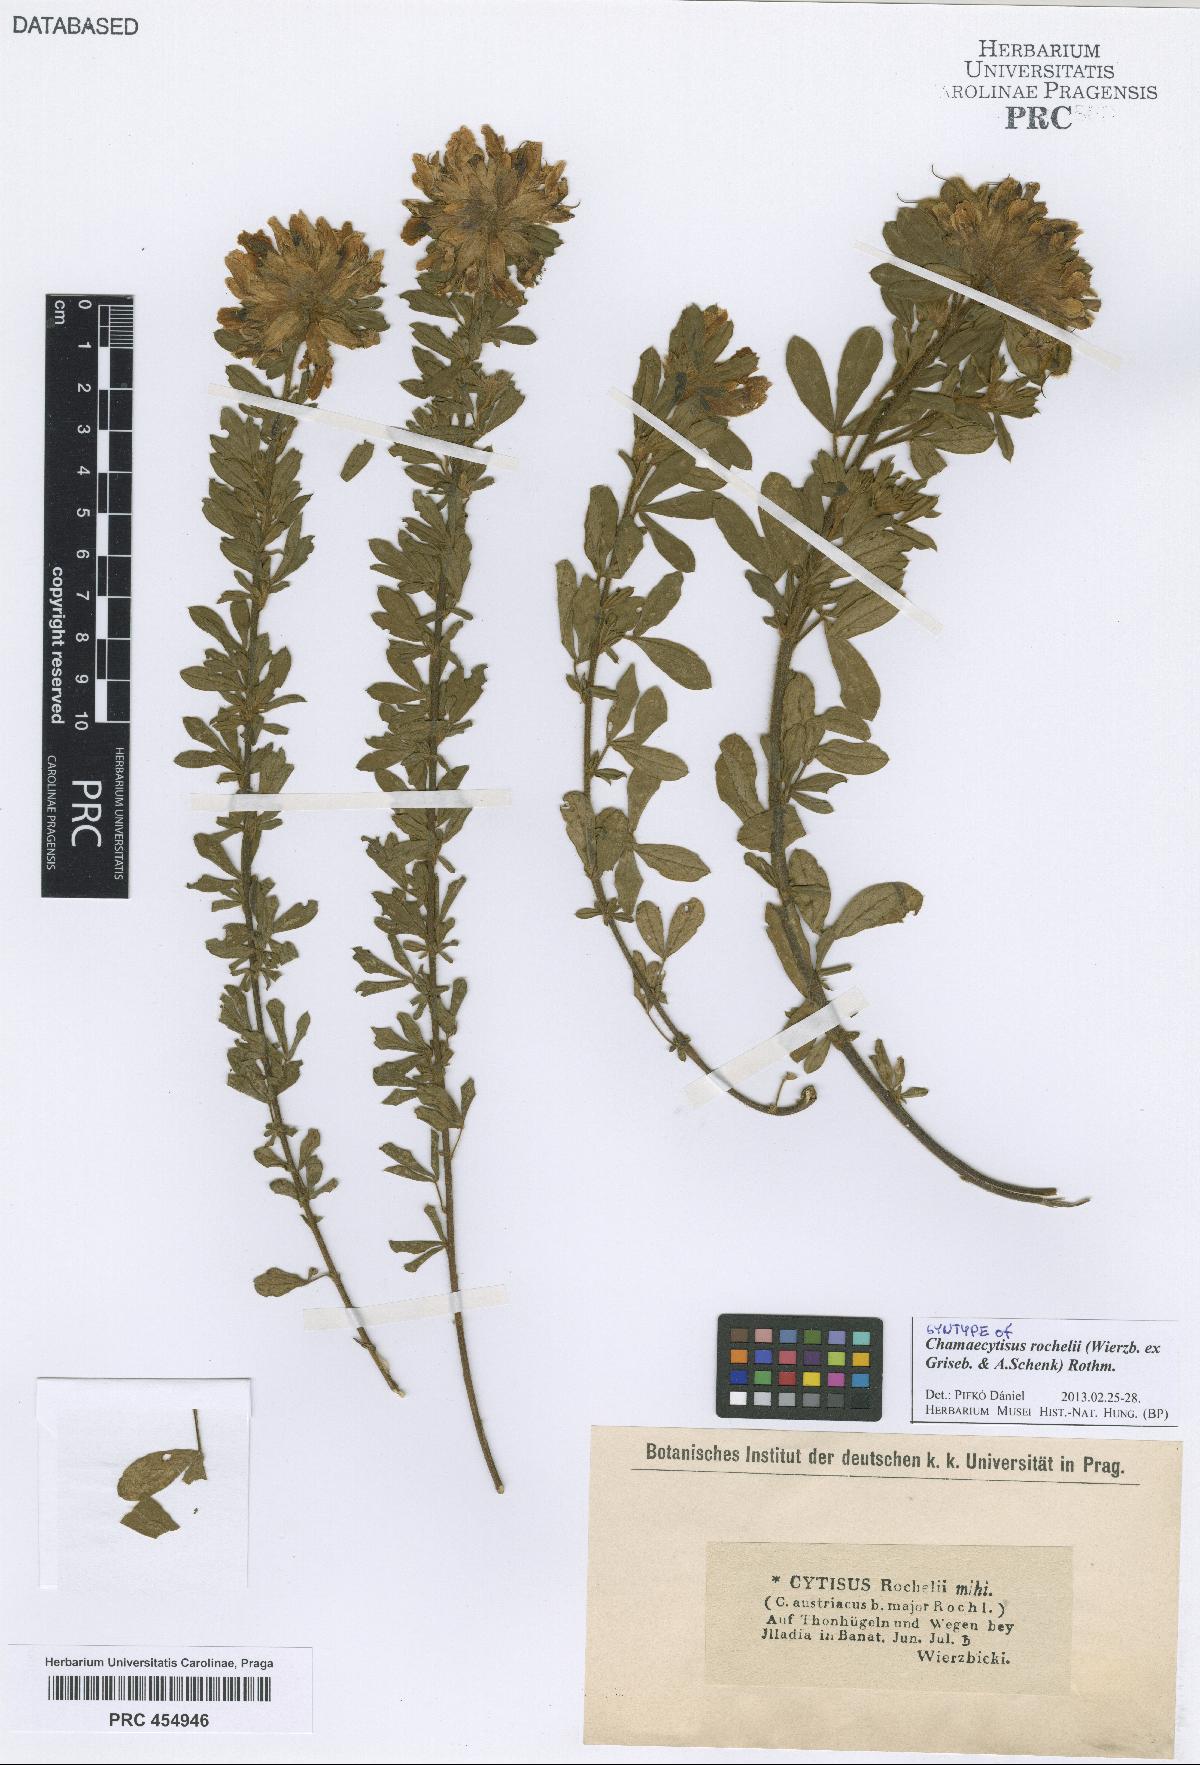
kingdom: Plantae
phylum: Tracheophyta
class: Magnoliopsida
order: Fabales
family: Fabaceae
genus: Chamaecytisus
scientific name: Chamaecytisus austriacus
